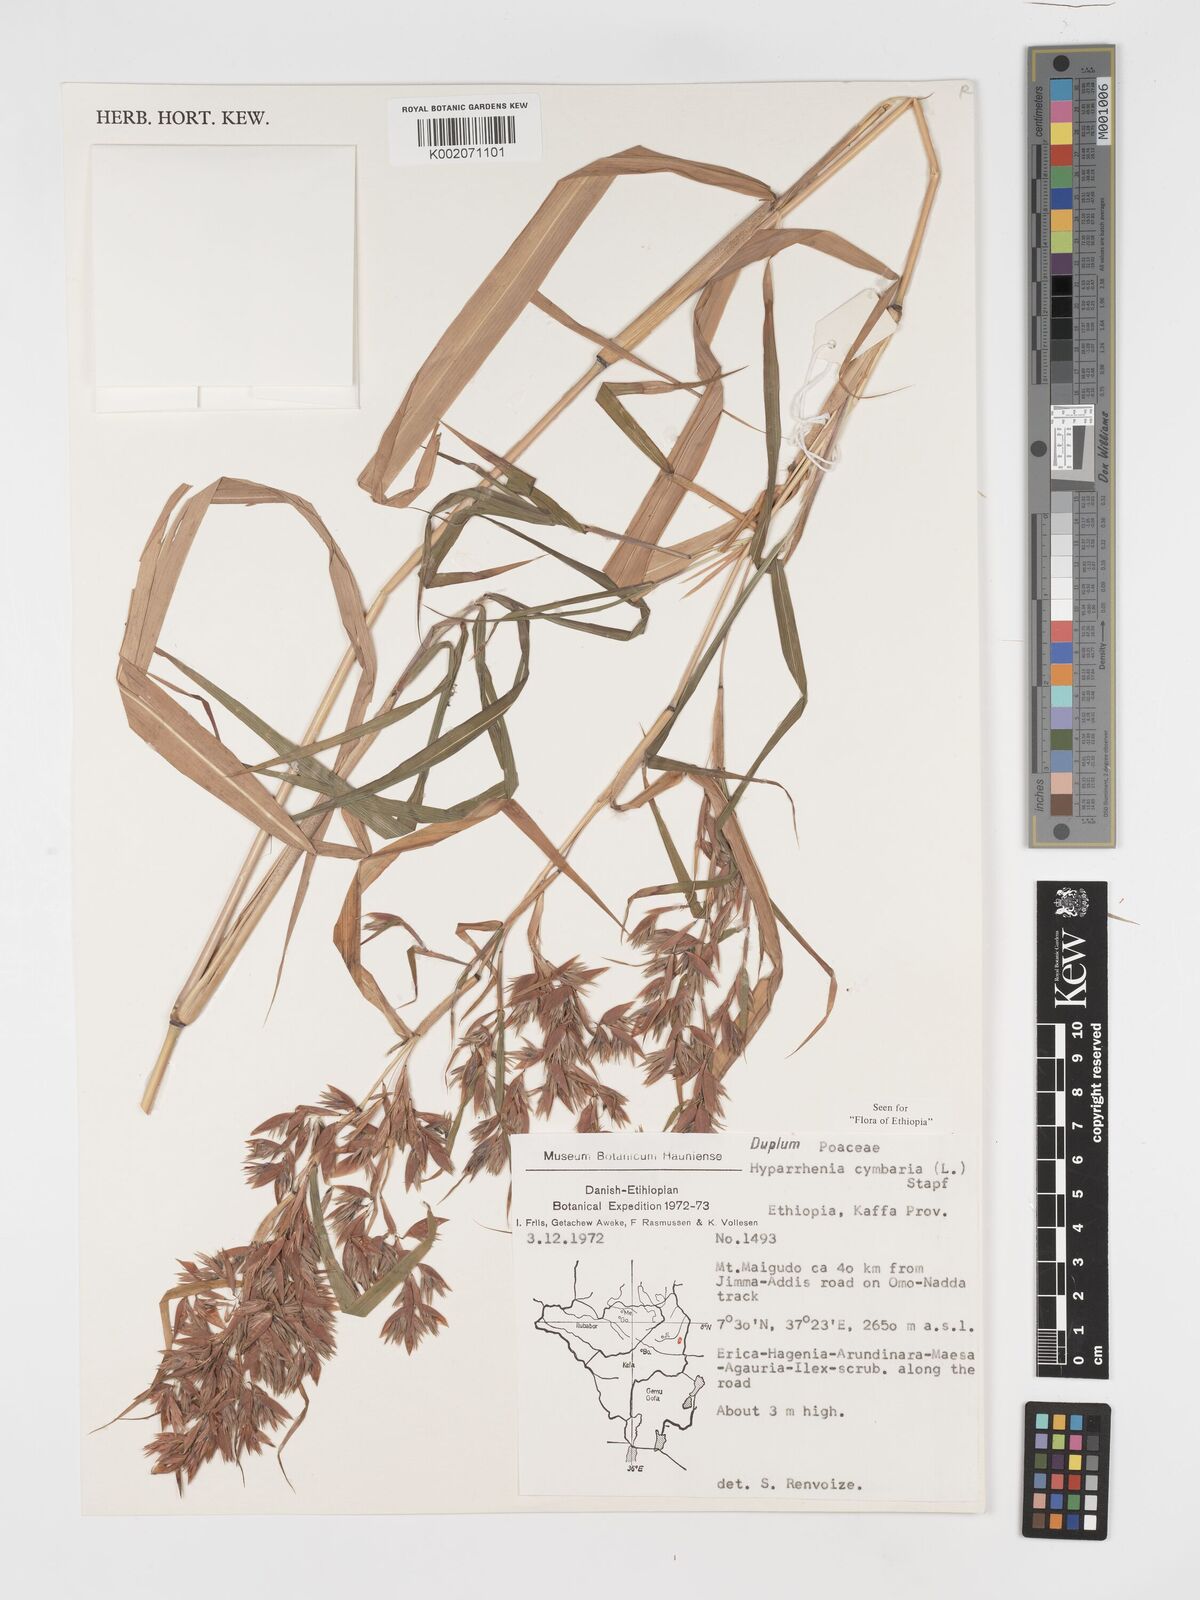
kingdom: Plantae
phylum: Tracheophyta
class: Liliopsida
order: Poales
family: Poaceae
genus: Hyparrhenia
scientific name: Hyparrhenia cymbaria
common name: Boat thatching grass
